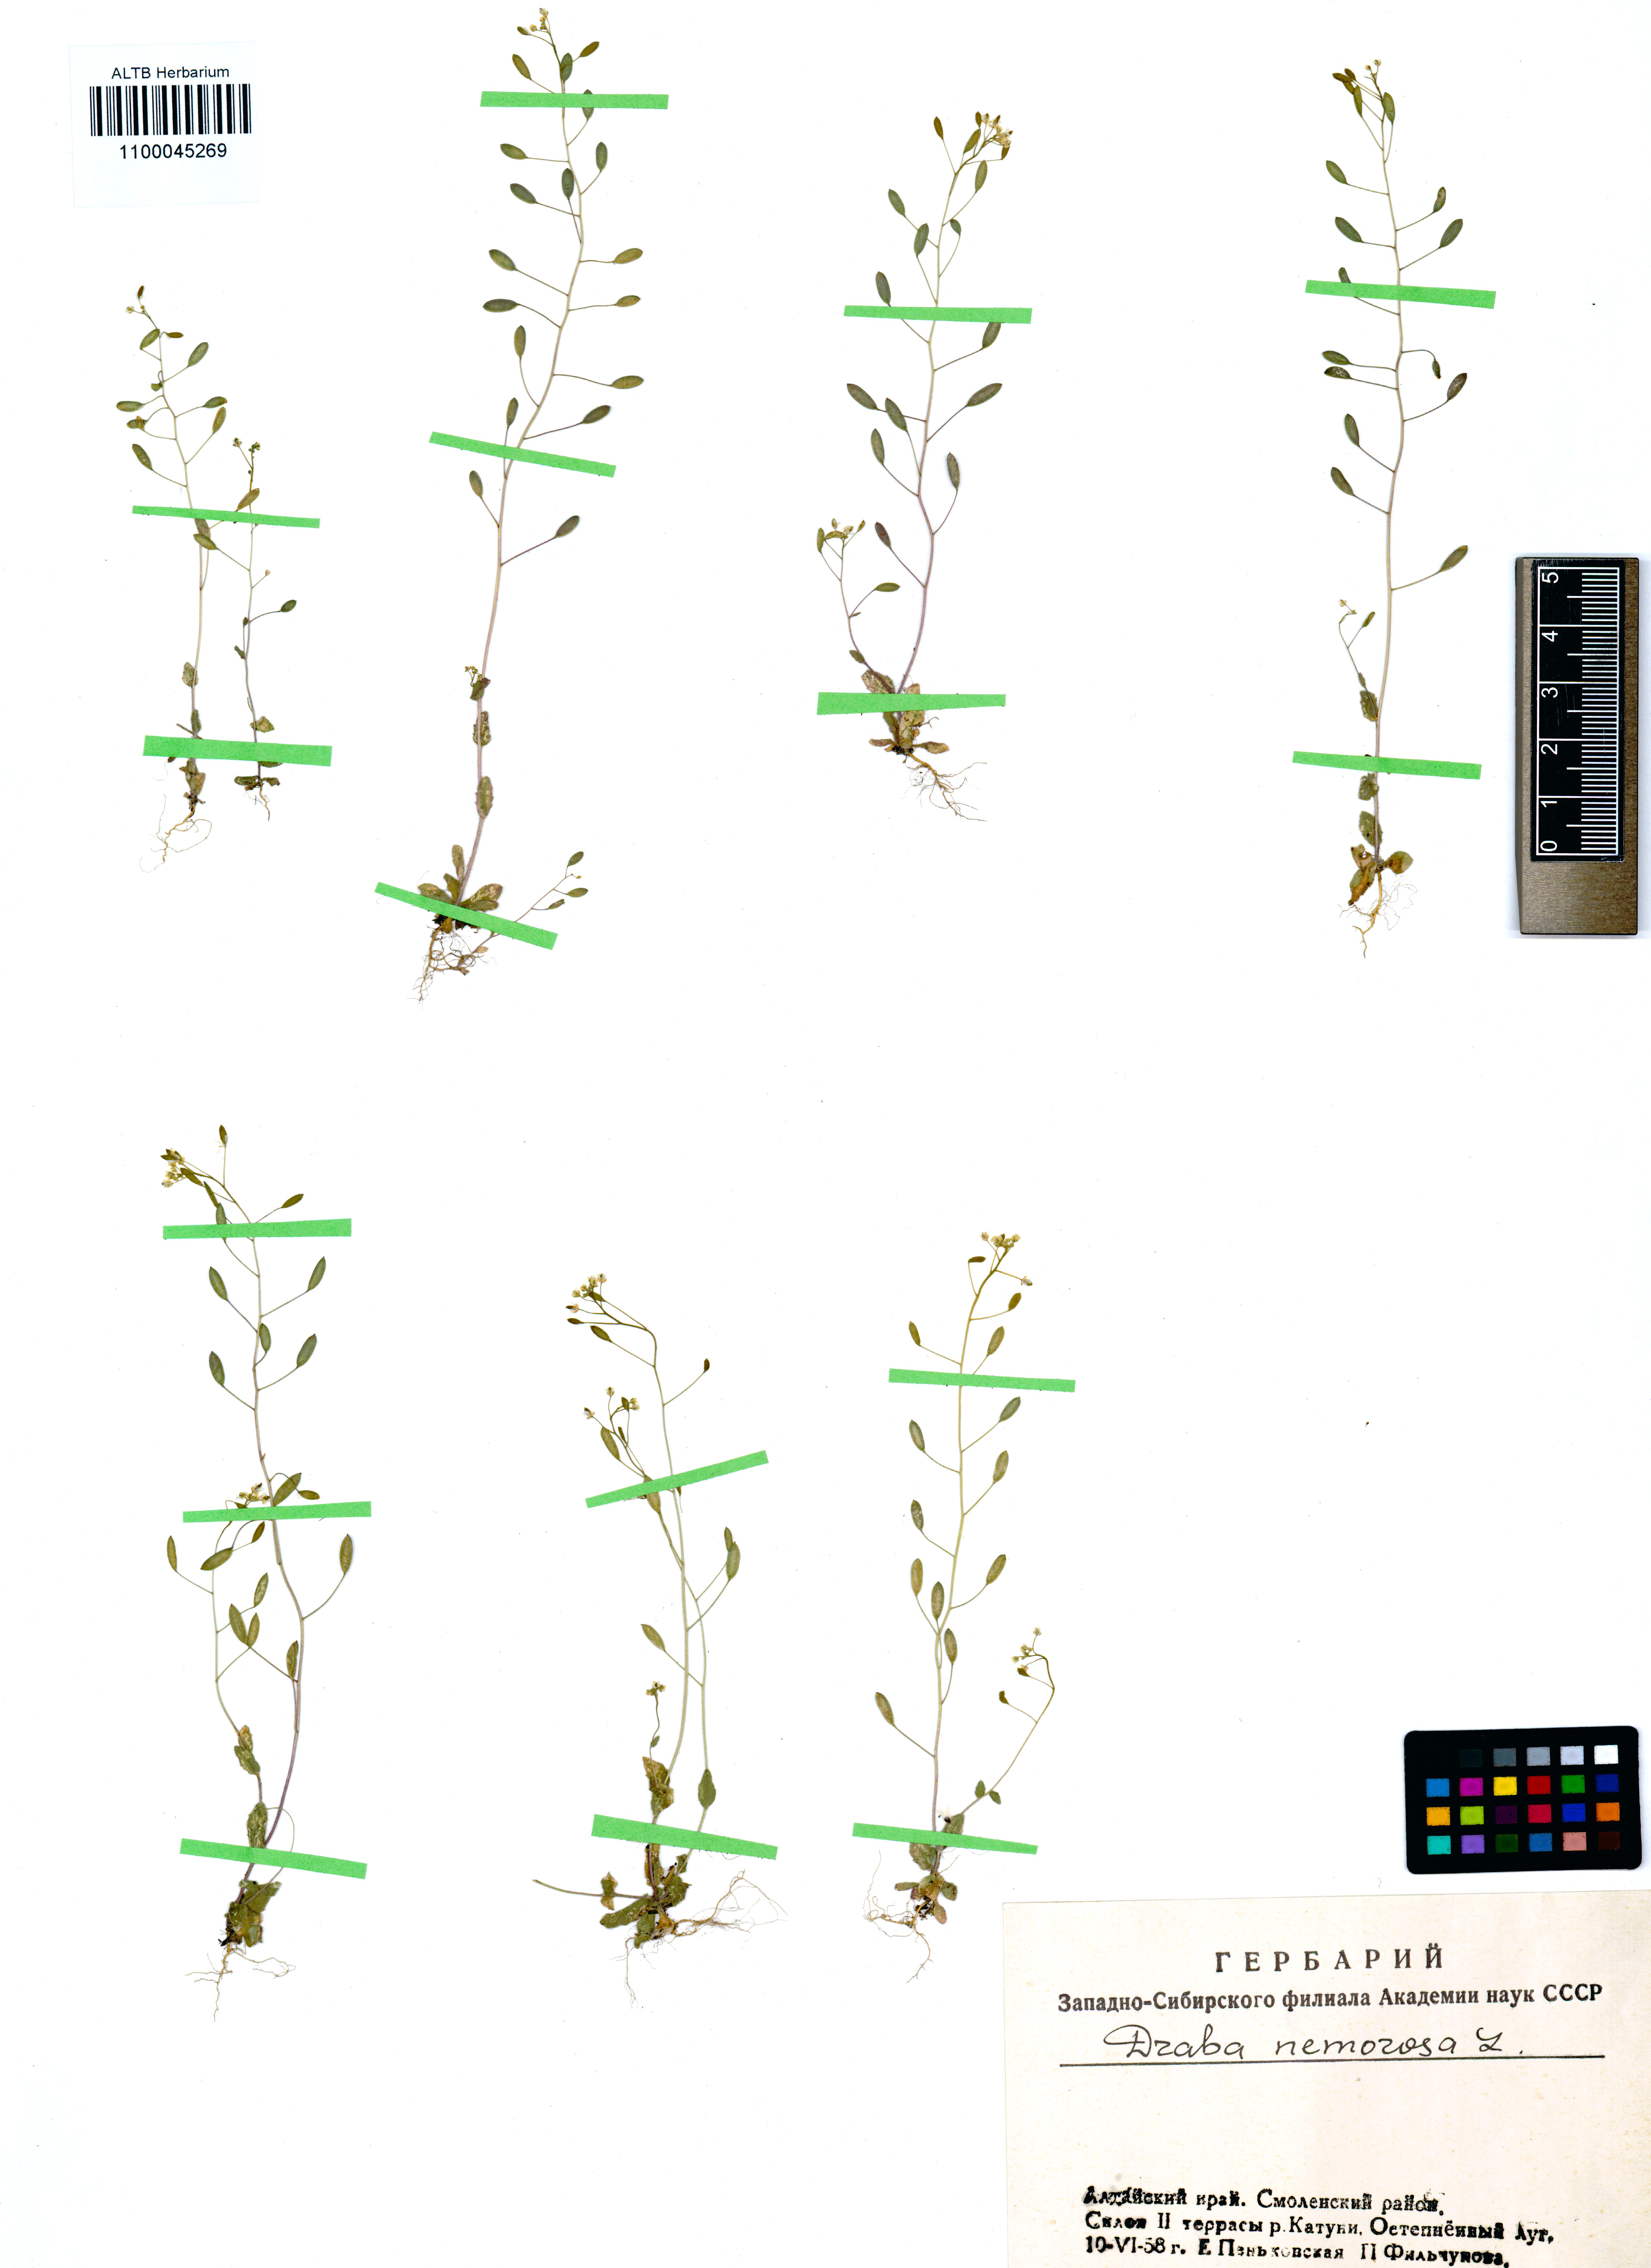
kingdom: Plantae
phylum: Tracheophyta
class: Magnoliopsida
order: Brassicales
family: Brassicaceae
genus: Draba
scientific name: Draba nemorosa
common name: Wood whitlow-grass
